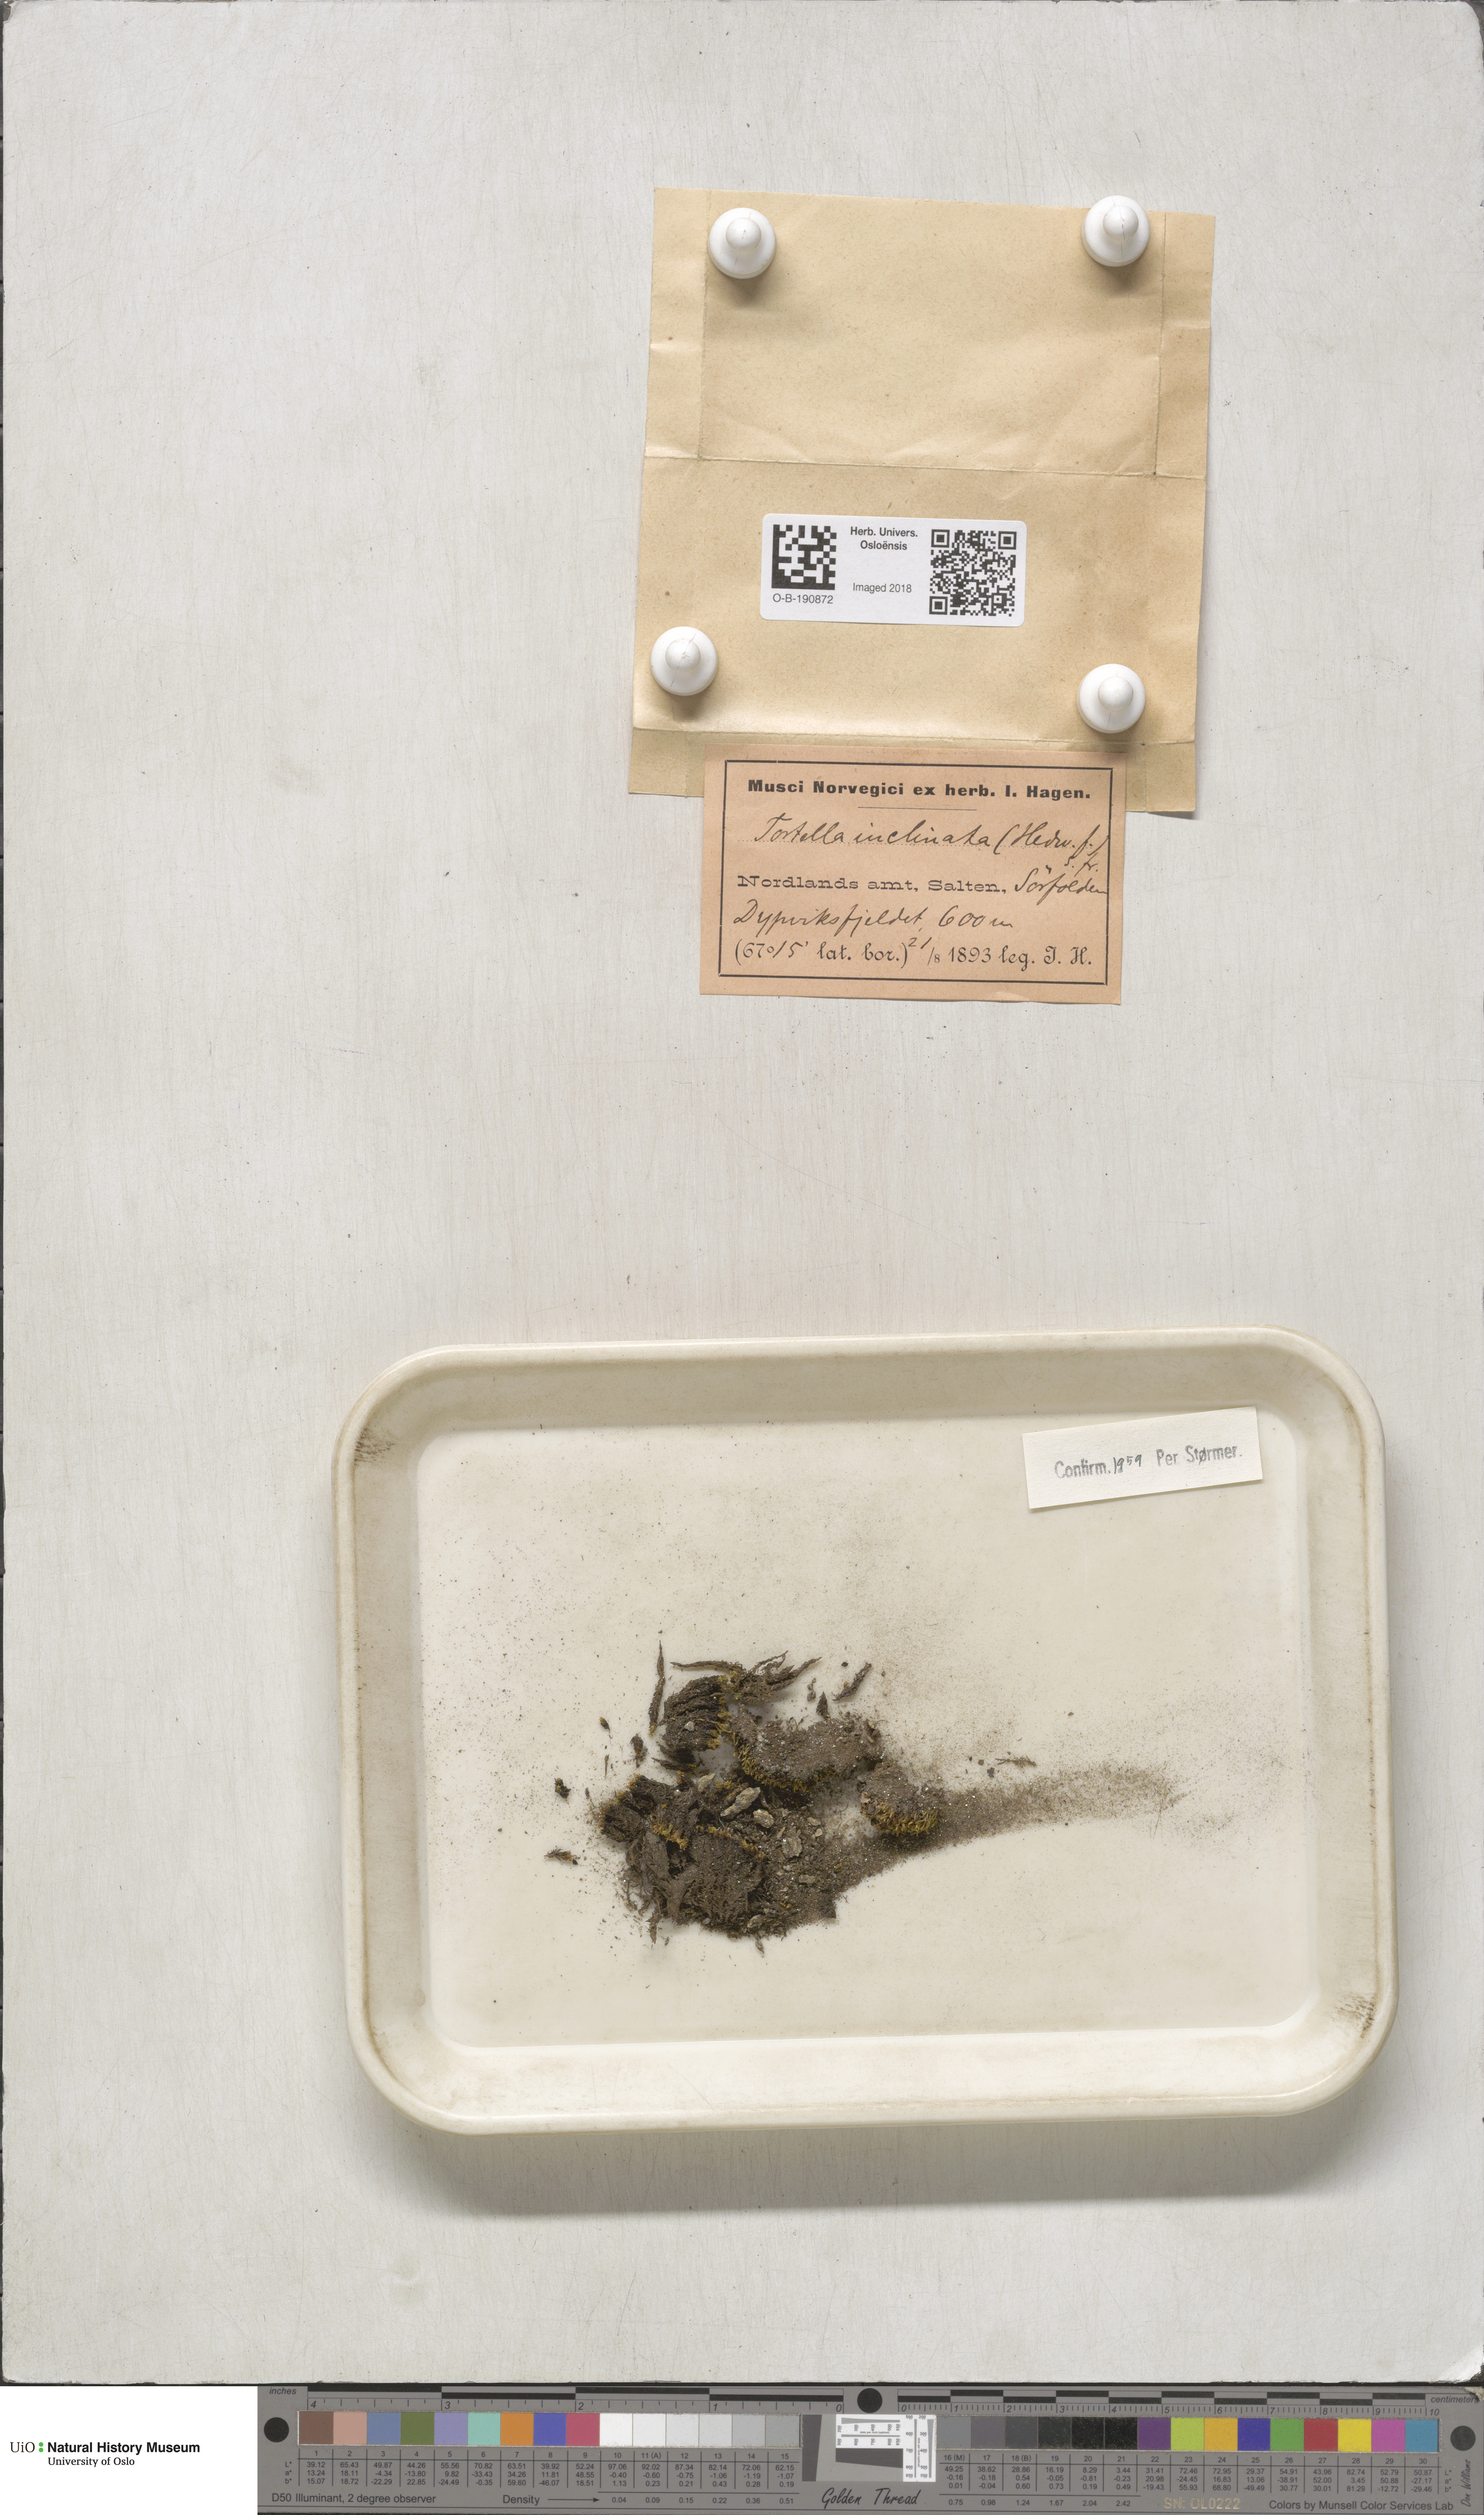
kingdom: Plantae
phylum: Bryophyta
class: Bryopsida
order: Pottiales
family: Pottiaceae
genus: Tortella
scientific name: Tortella inclinata
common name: Inclined twisted moss
